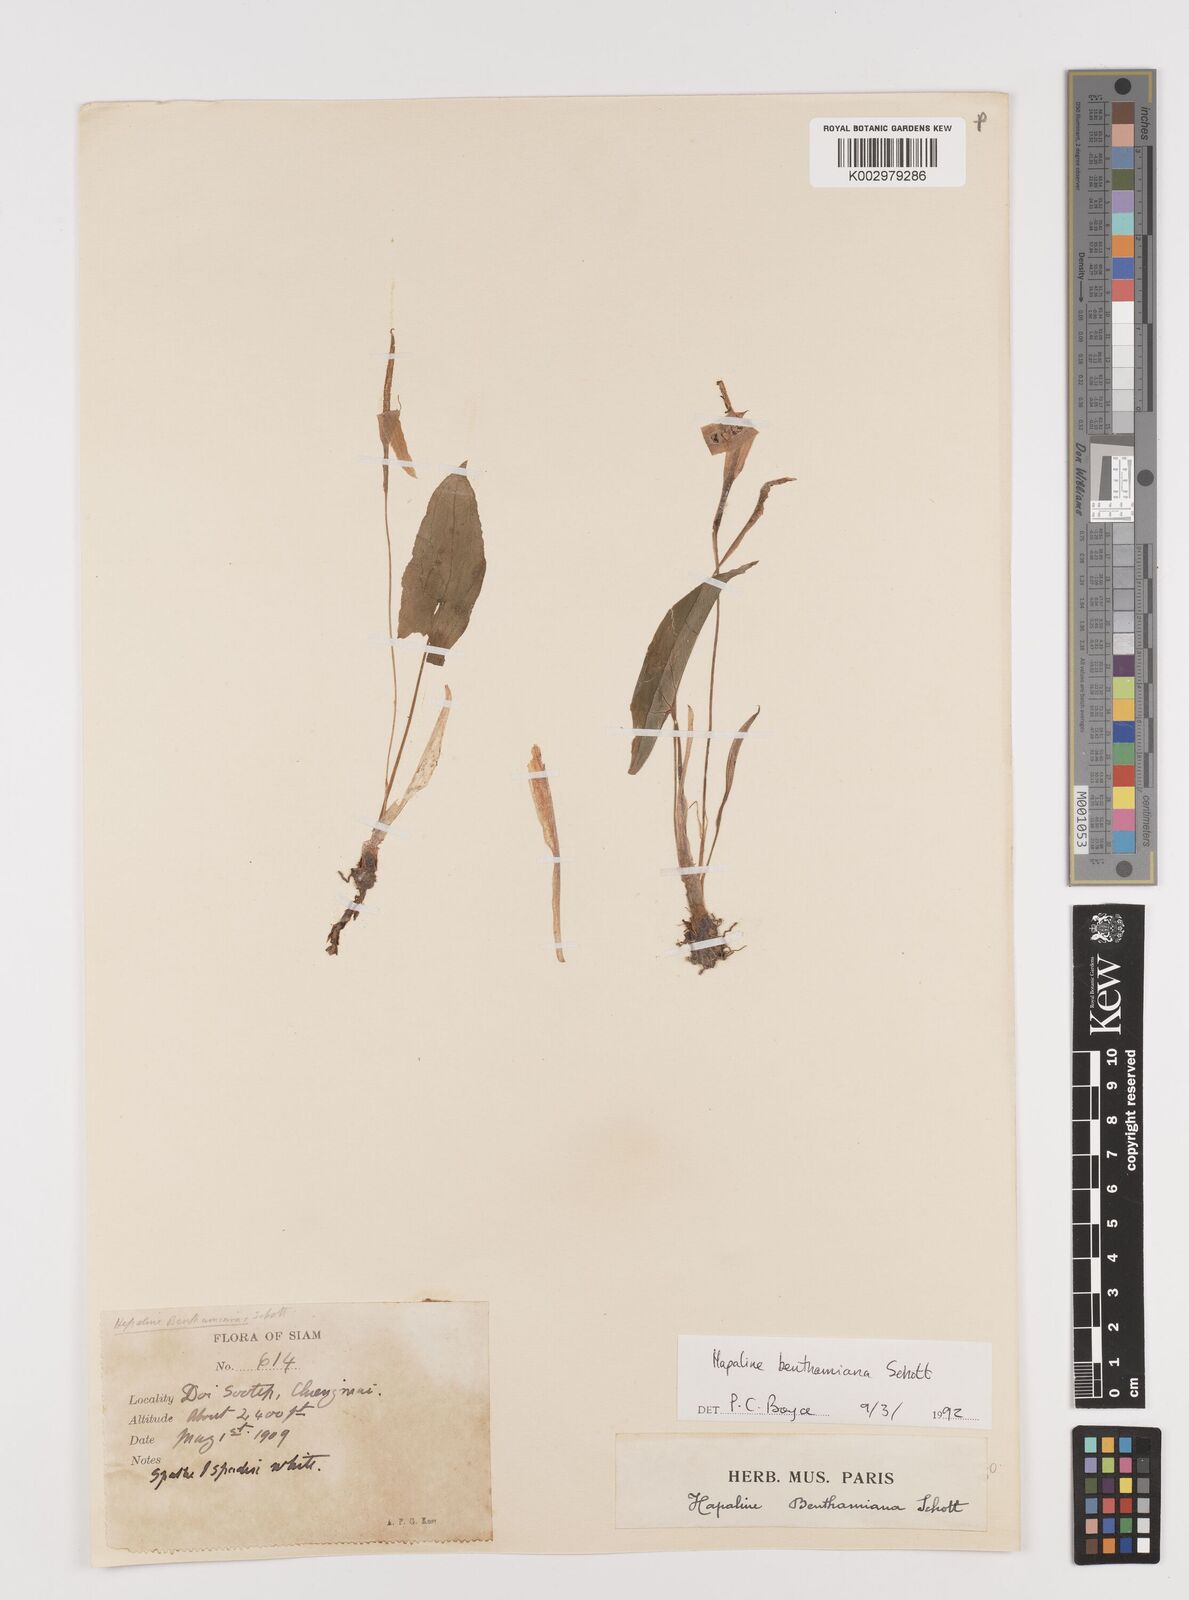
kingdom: Plantae
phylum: Tracheophyta
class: Liliopsida
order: Alismatales
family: Araceae
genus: Hapaline
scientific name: Hapaline benthamiana
